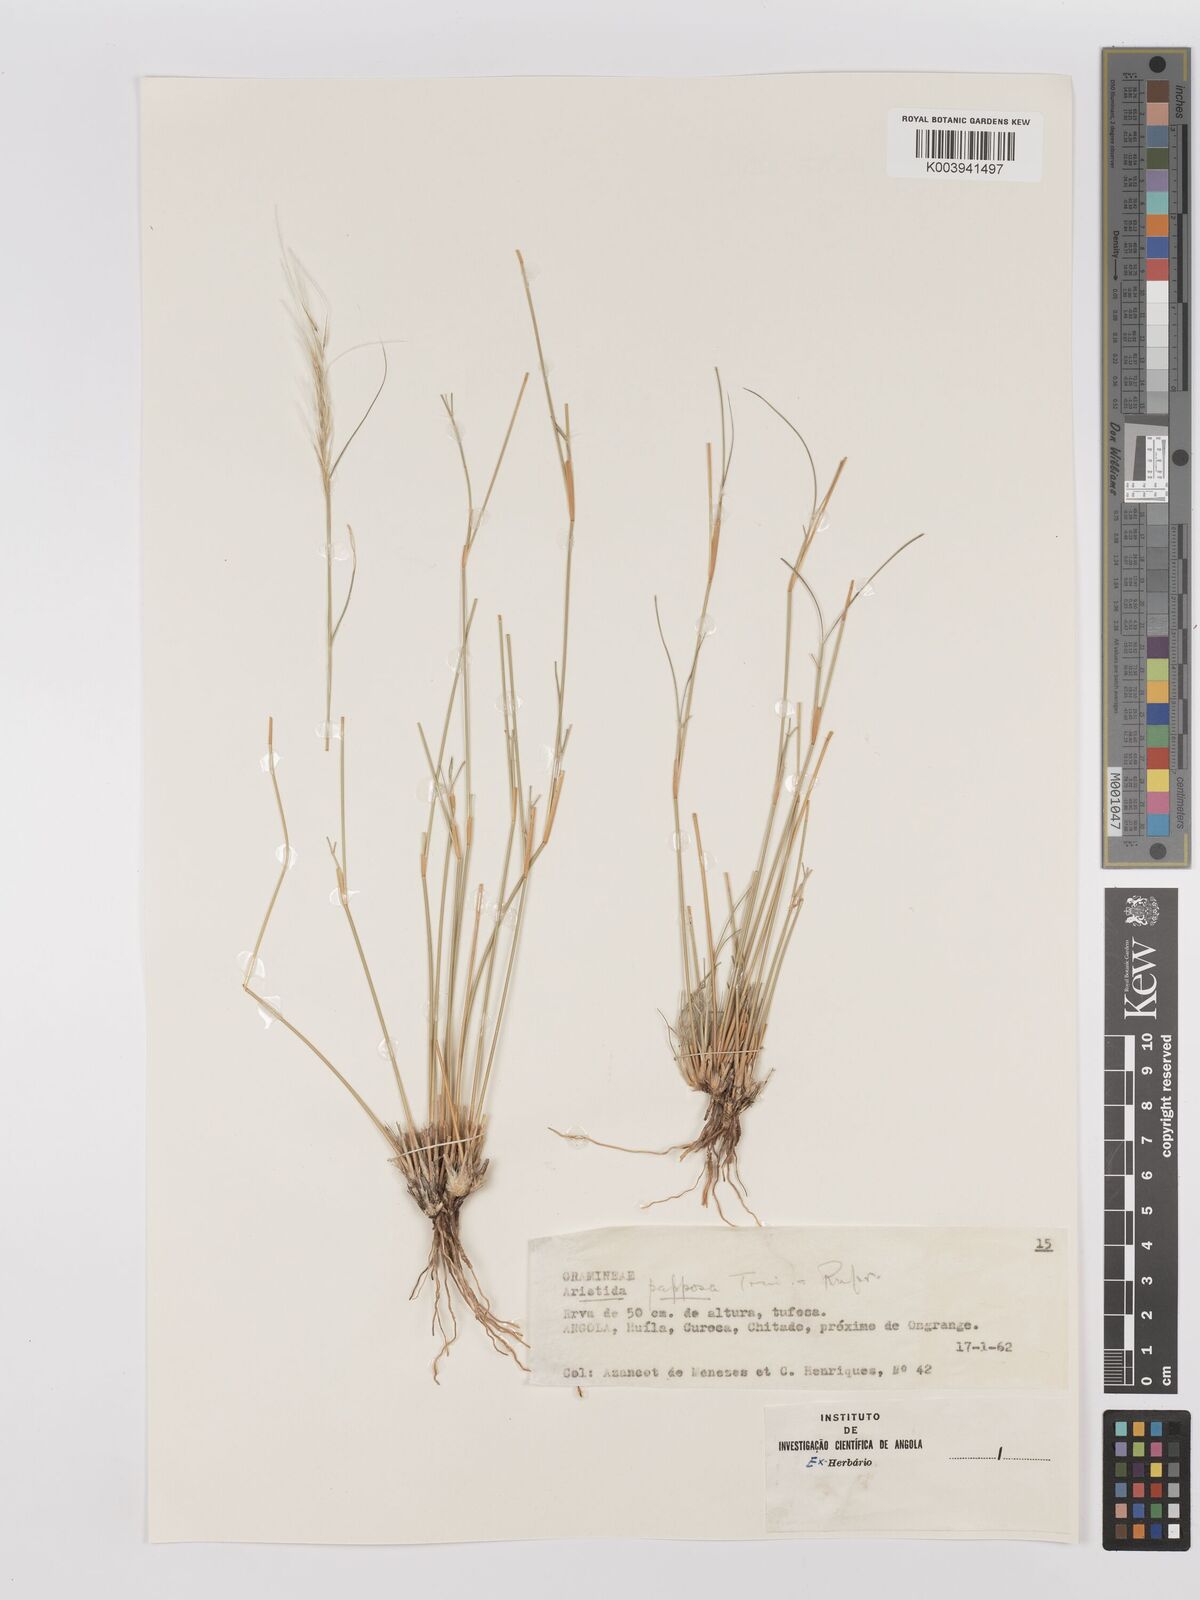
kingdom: Plantae
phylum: Tracheophyta
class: Liliopsida
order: Poales
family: Poaceae
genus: Stipagrostis
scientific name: Stipagrostis uniplumis
